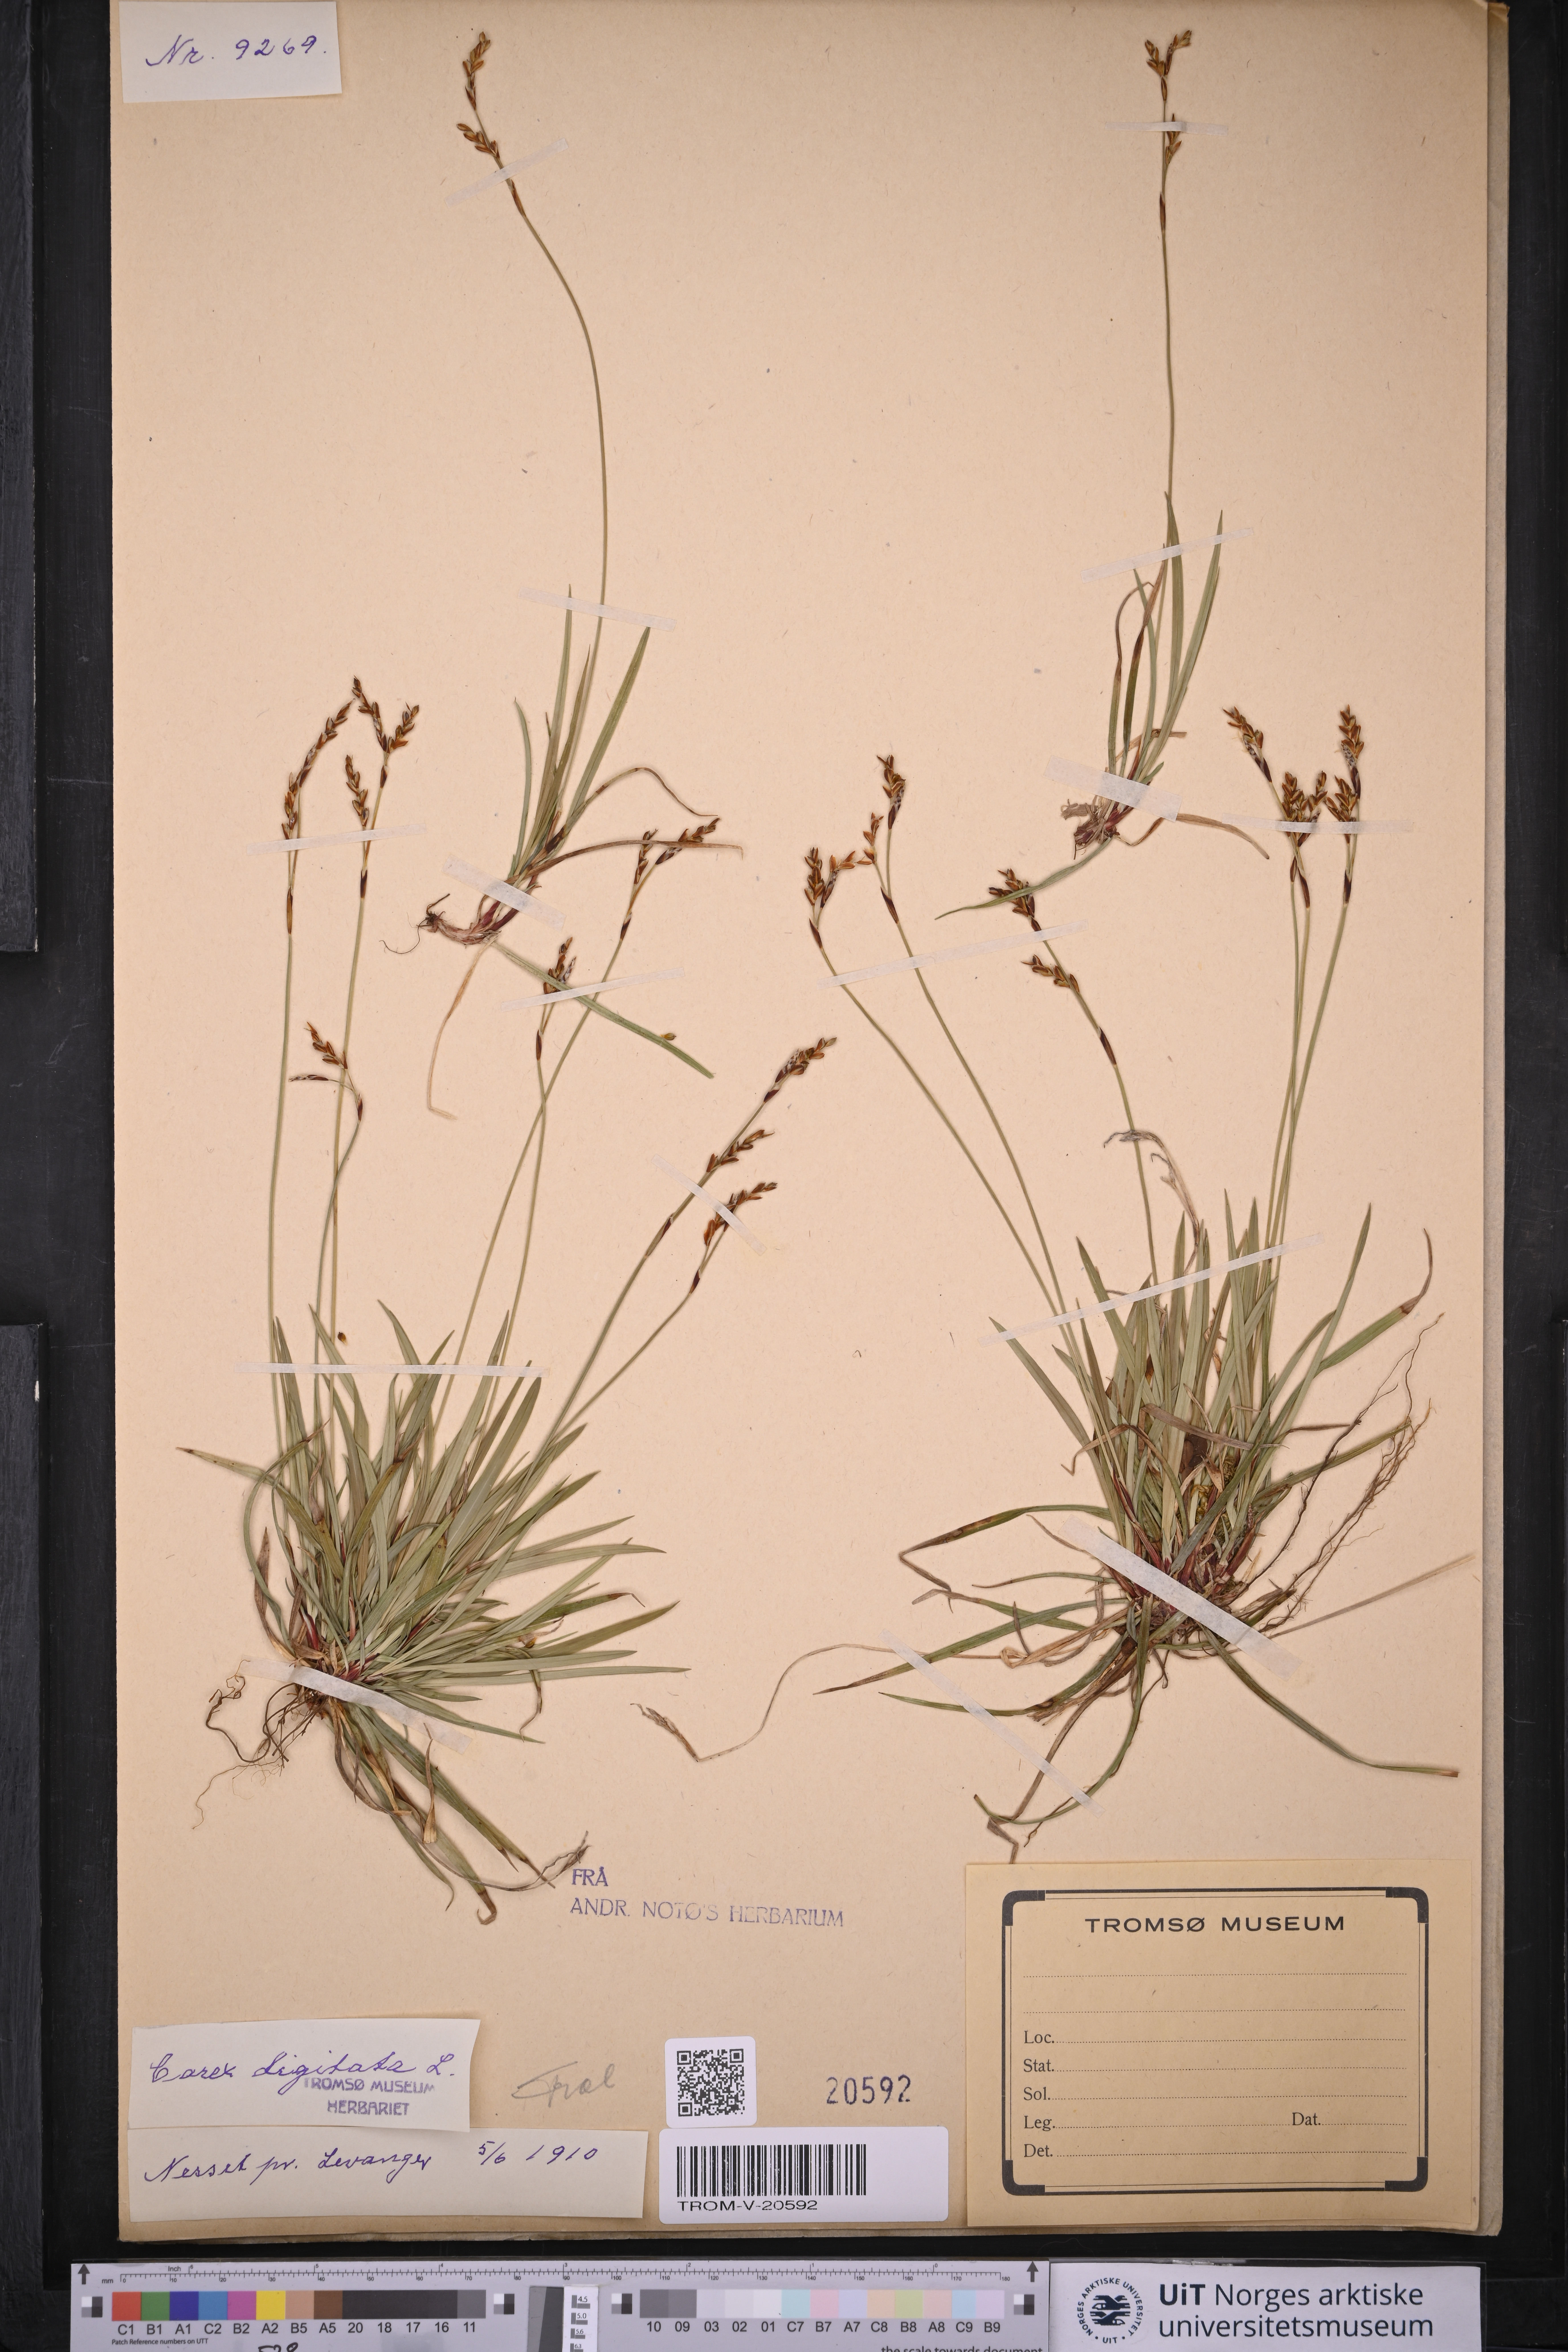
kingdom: Plantae
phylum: Tracheophyta
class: Liliopsida
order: Poales
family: Cyperaceae
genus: Carex
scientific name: Carex digitata
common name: Fingered sedge
